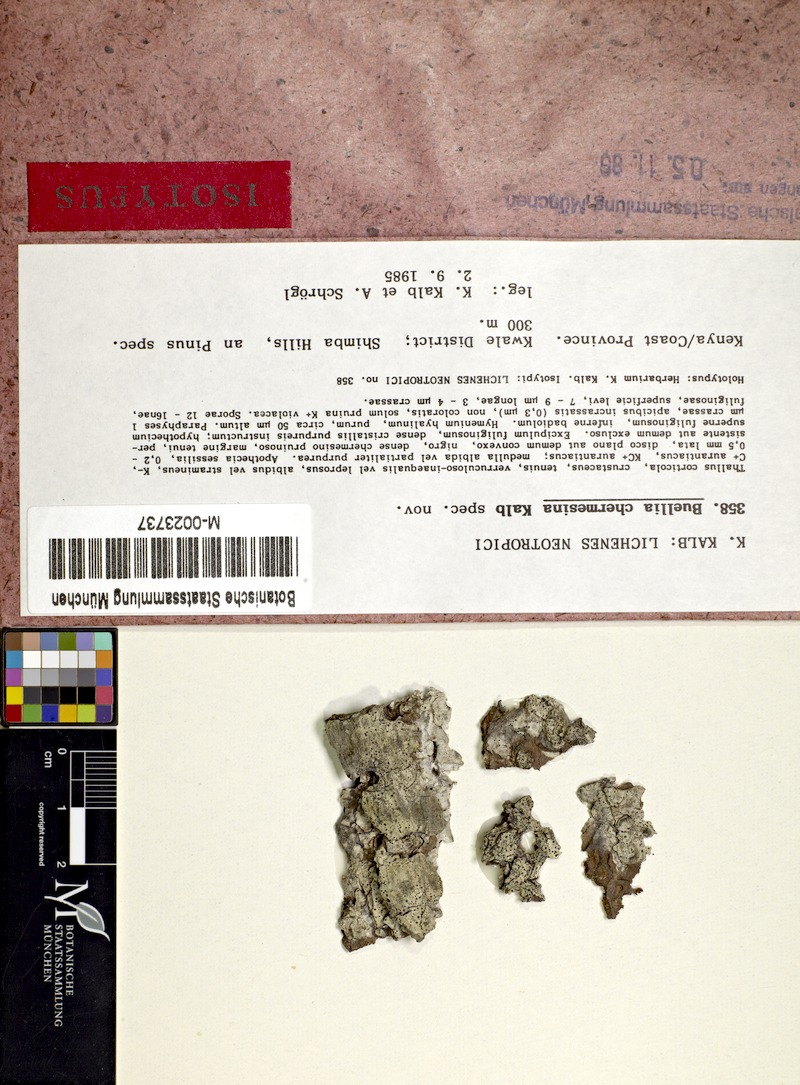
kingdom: Fungi
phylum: Ascomycota
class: Lecanoromycetes
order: Caliciales
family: Caliciaceae
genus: Gassicurtia
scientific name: Gassicurtia chermesina
